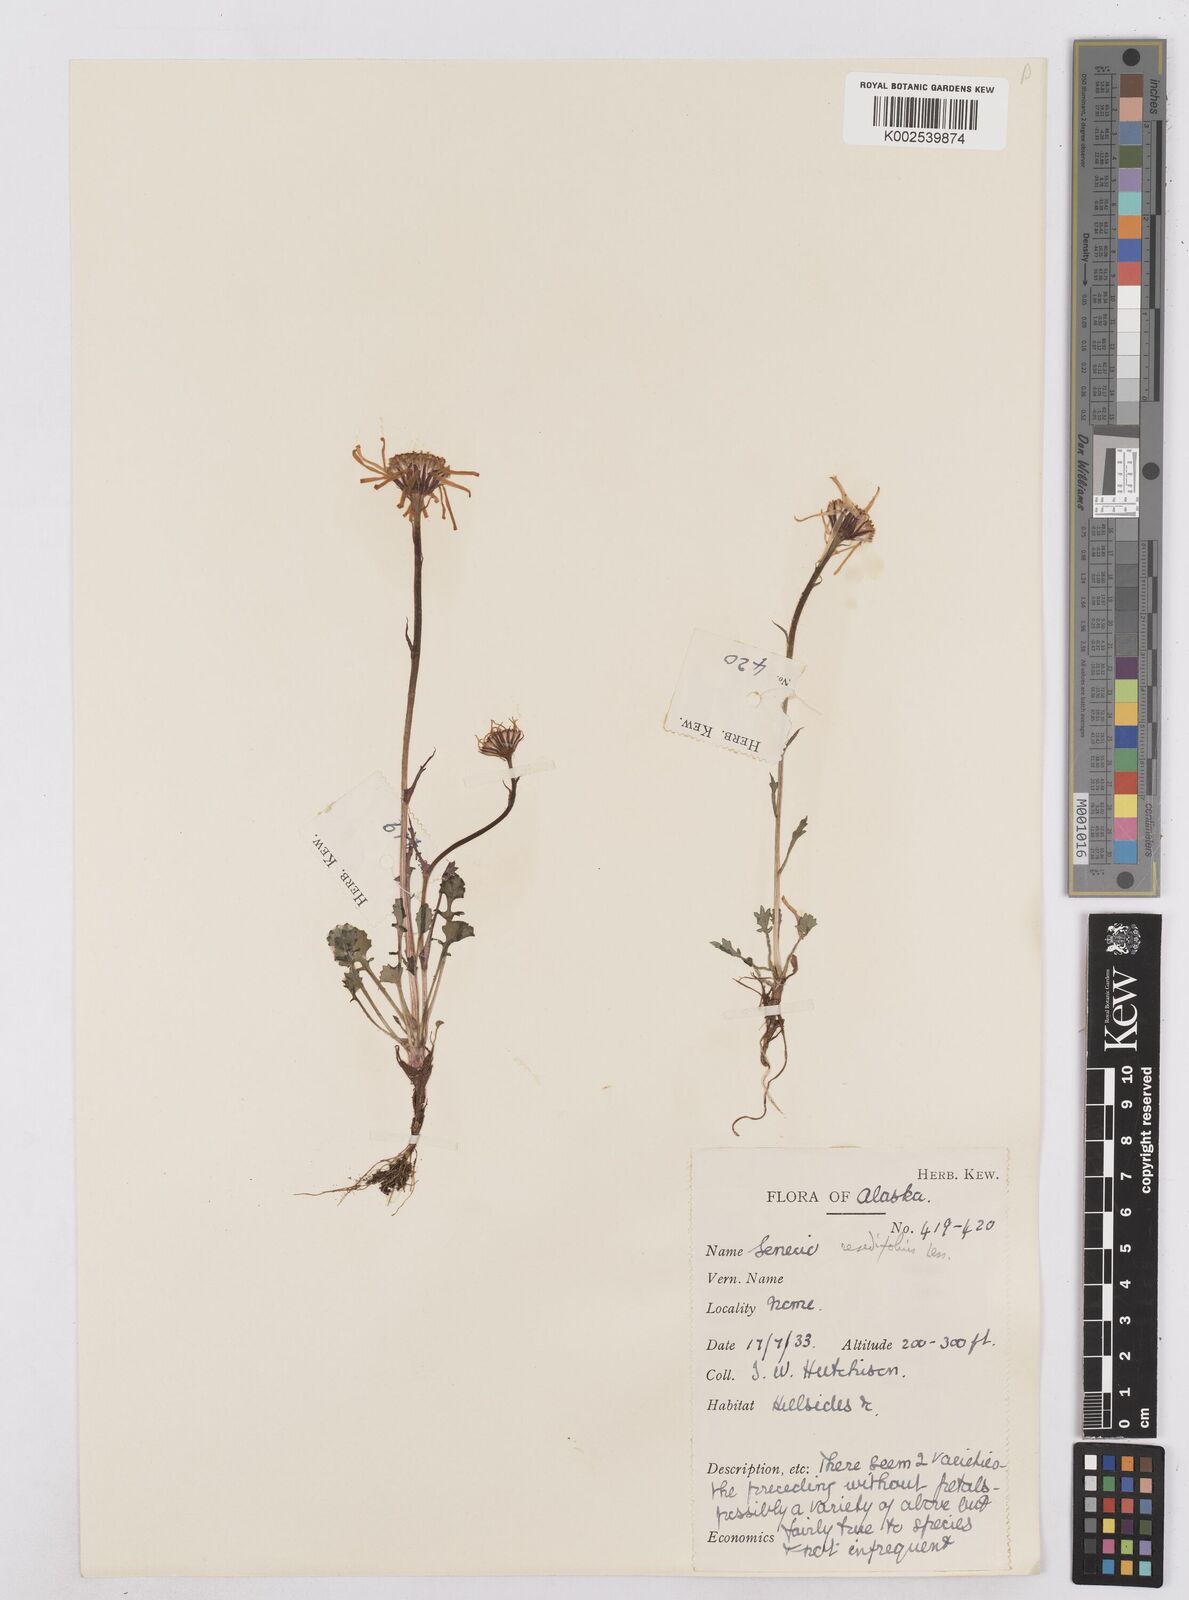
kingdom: Plantae
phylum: Tracheophyta
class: Magnoliopsida
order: Asterales
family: Asteraceae
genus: Packera
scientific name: Packera cymbalaria
